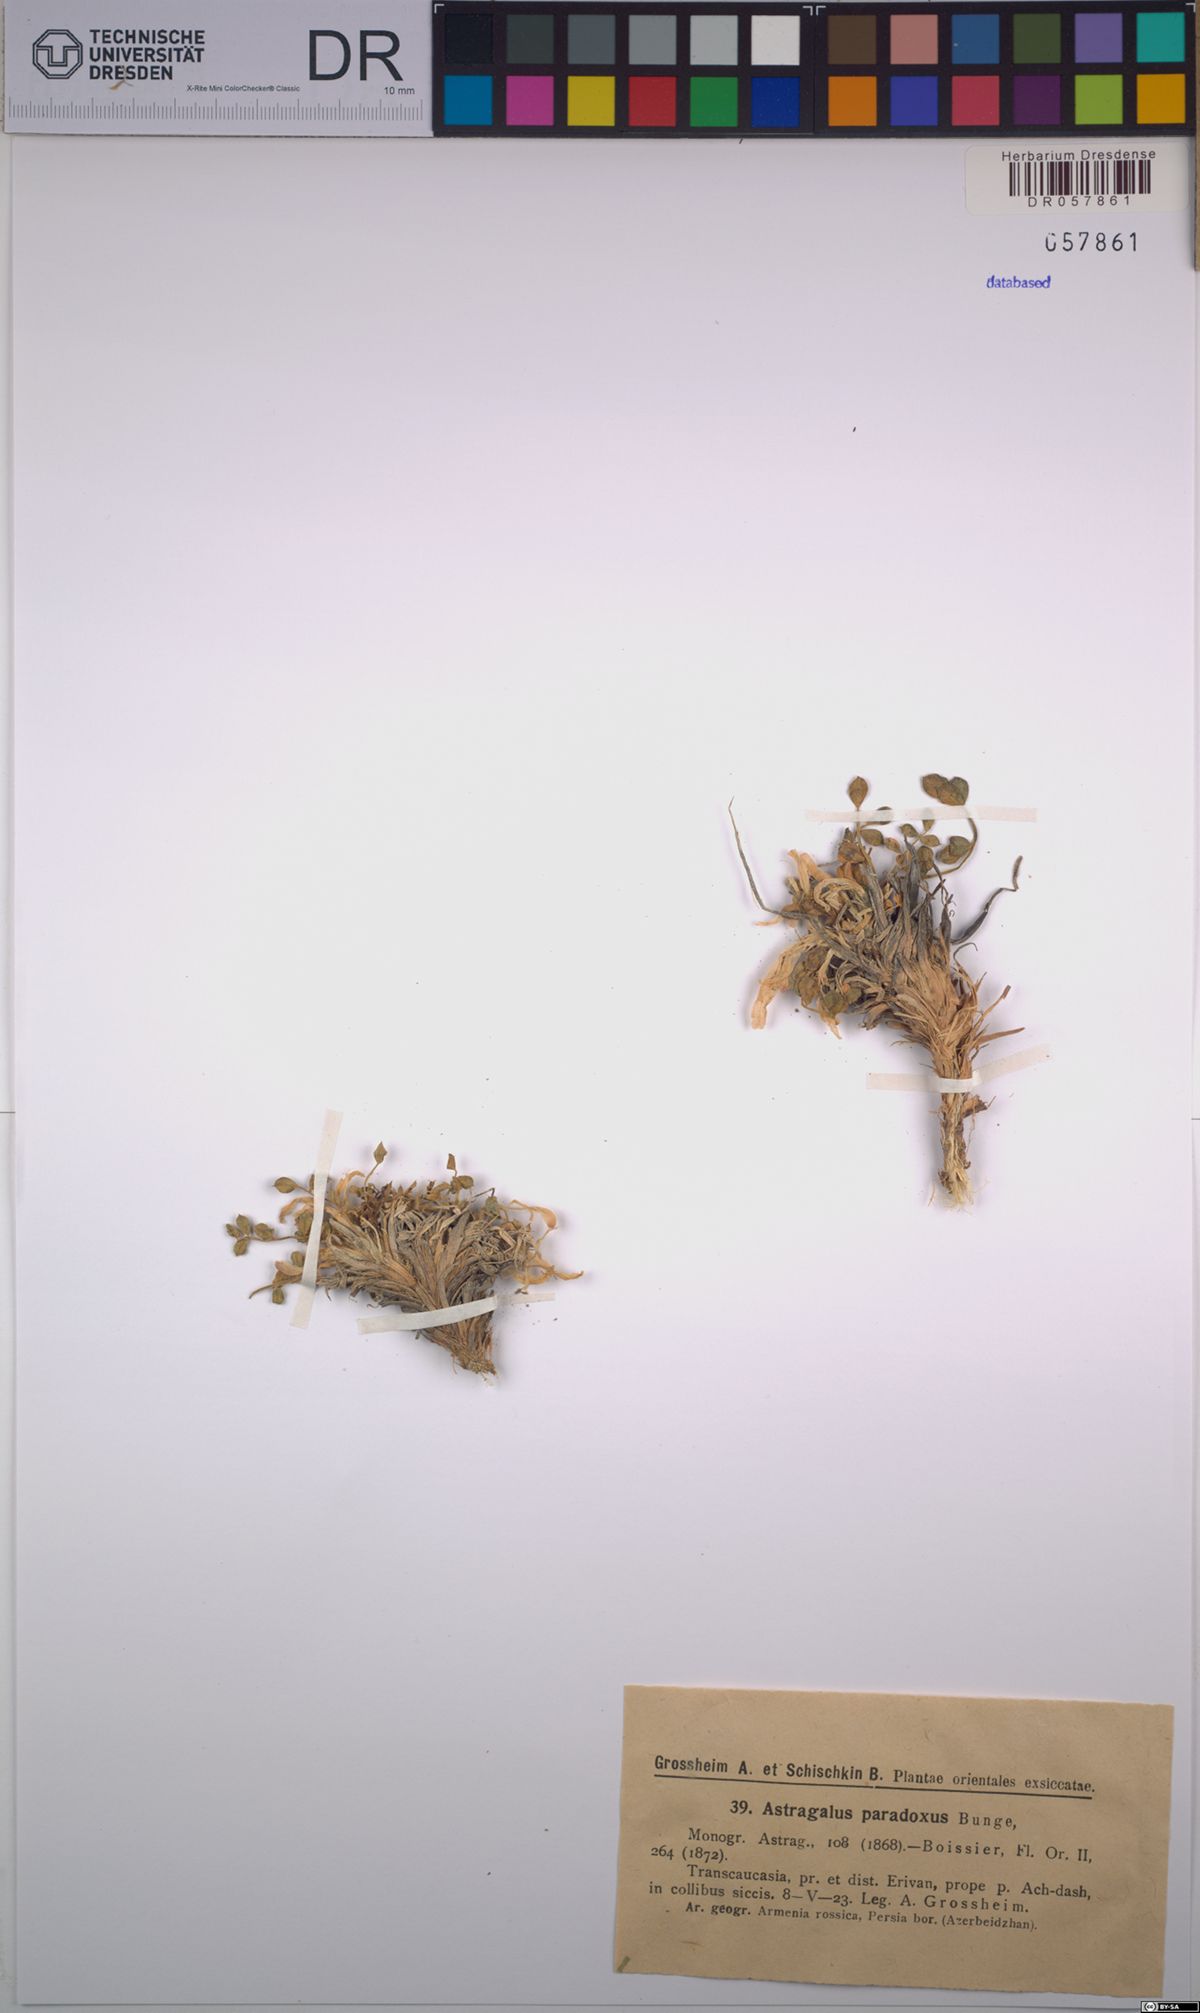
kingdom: Plantae
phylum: Tracheophyta
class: Magnoliopsida
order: Fabales
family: Fabaceae
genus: Astragalus
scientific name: Astragalus paradoxus
